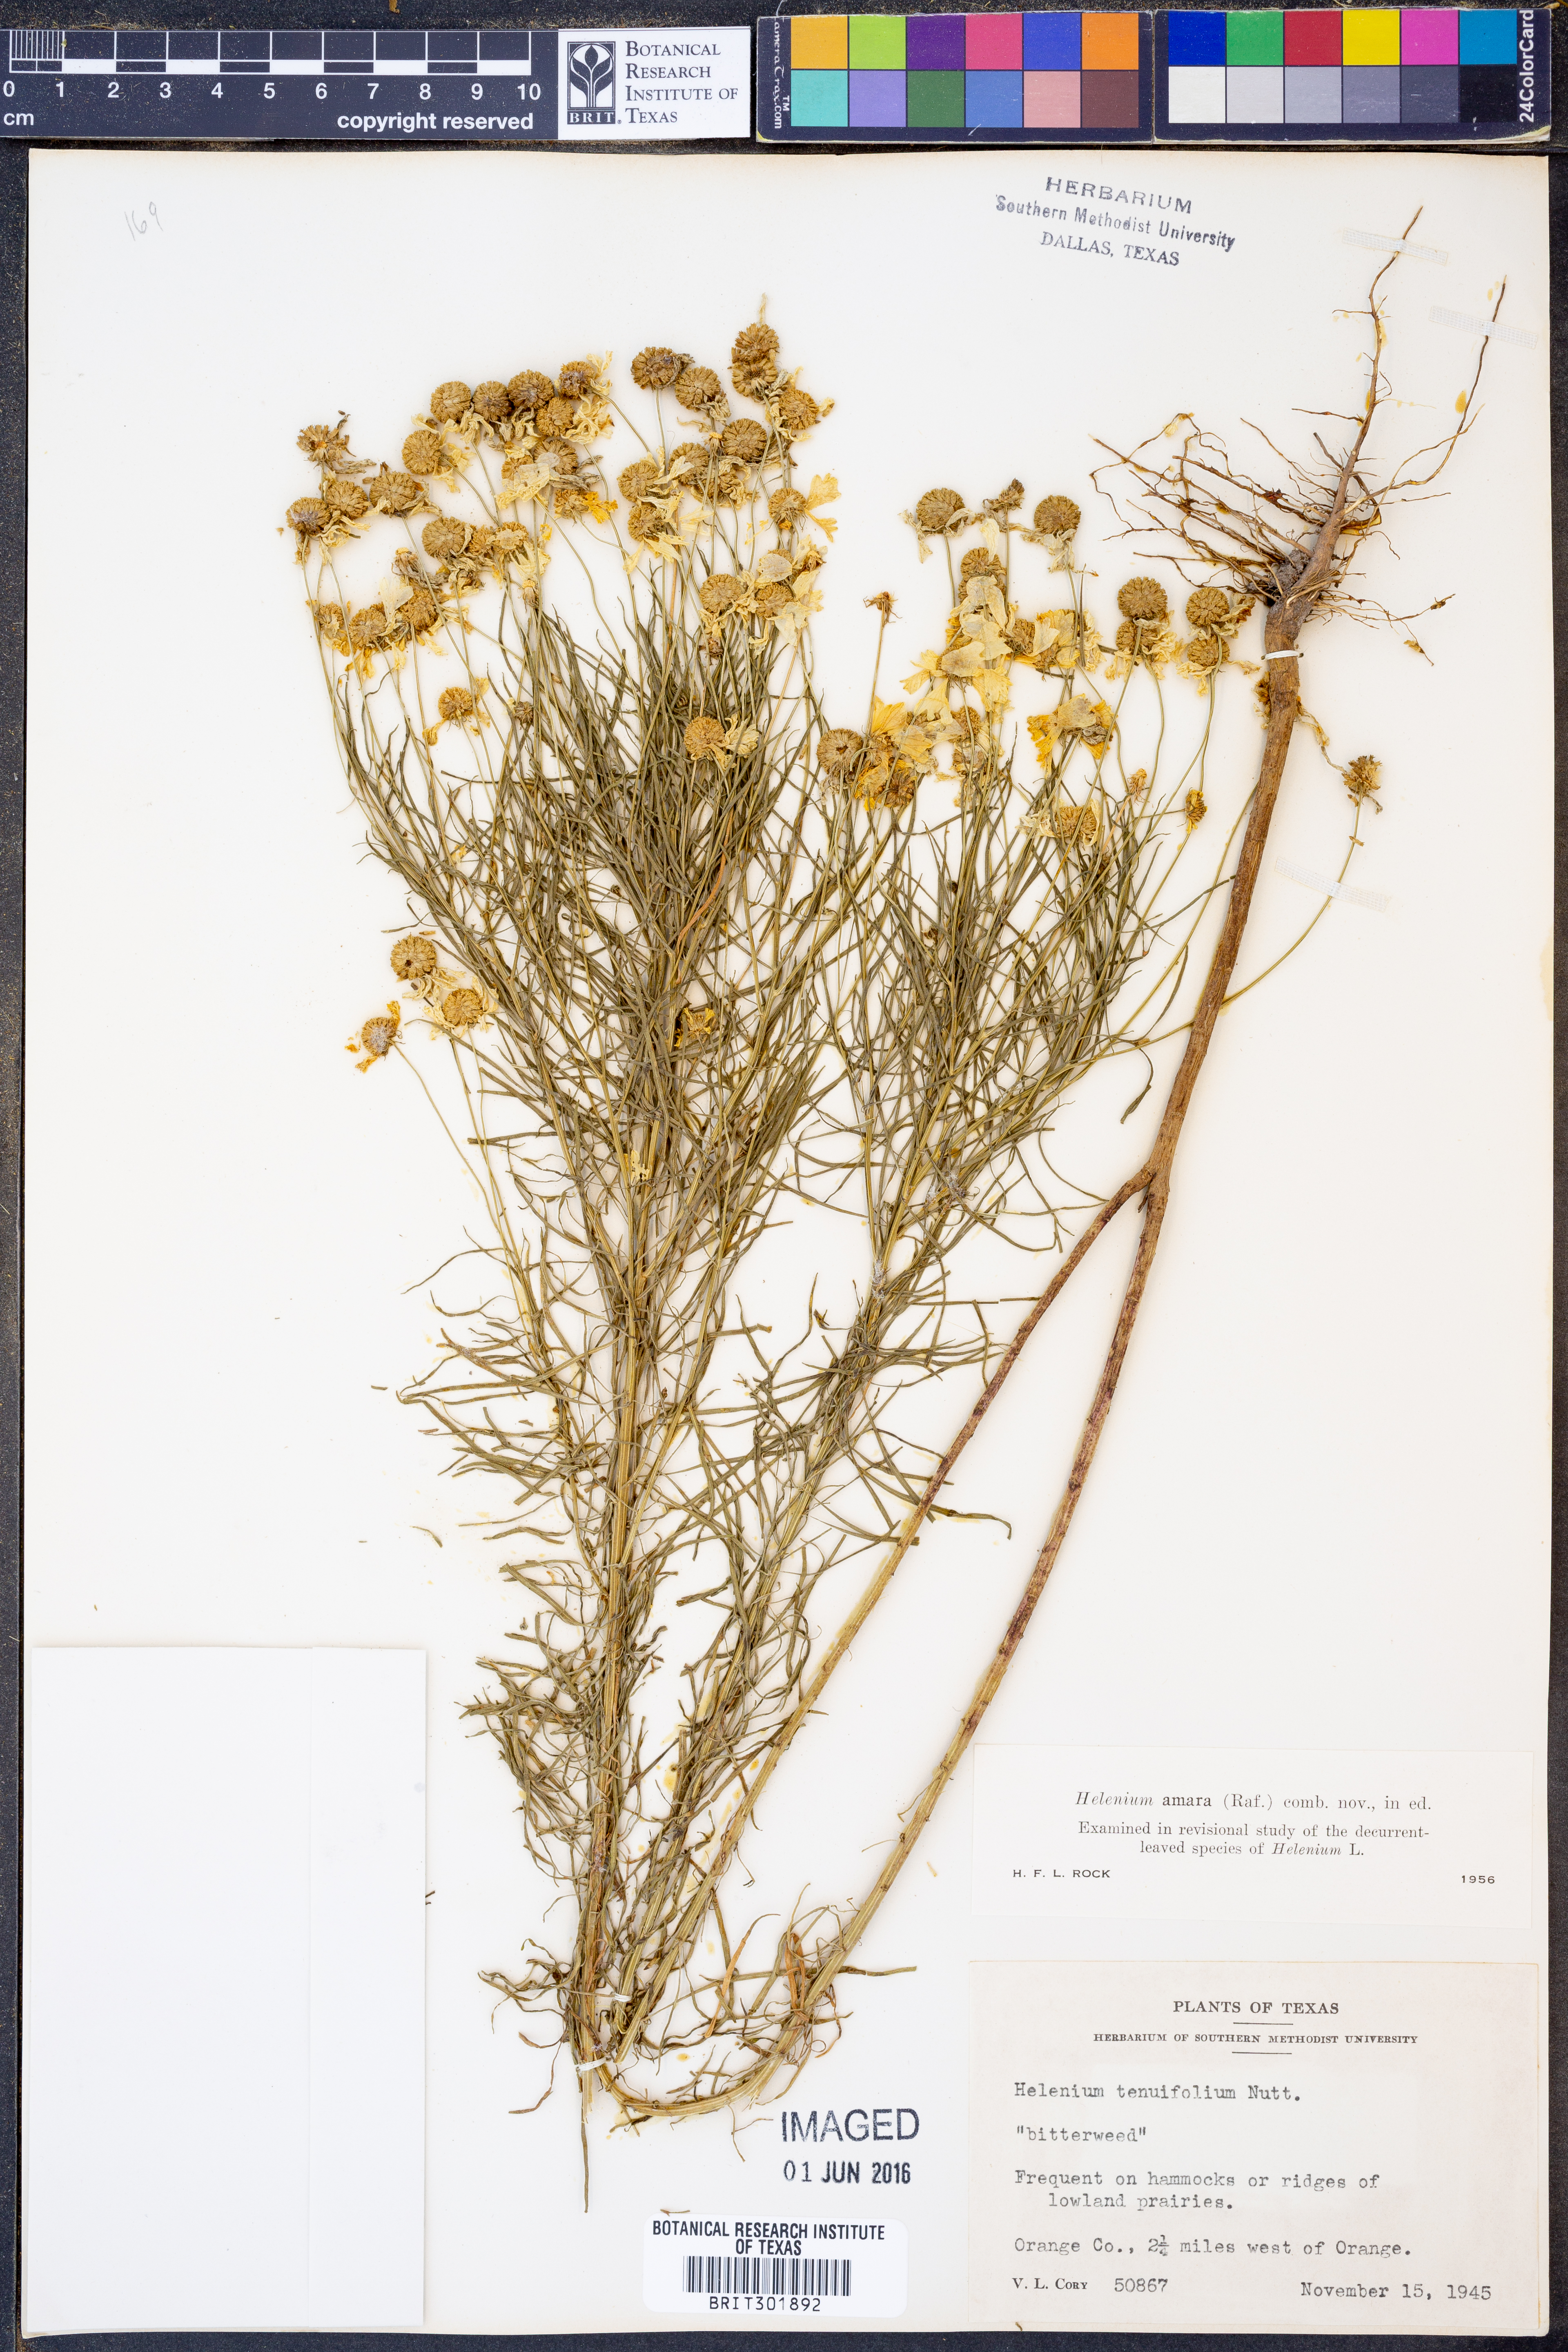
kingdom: Plantae
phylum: Tracheophyta
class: Magnoliopsida
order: Asterales
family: Asteraceae
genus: Helenium
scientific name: Helenium amarum
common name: Bitter sneezeweed
